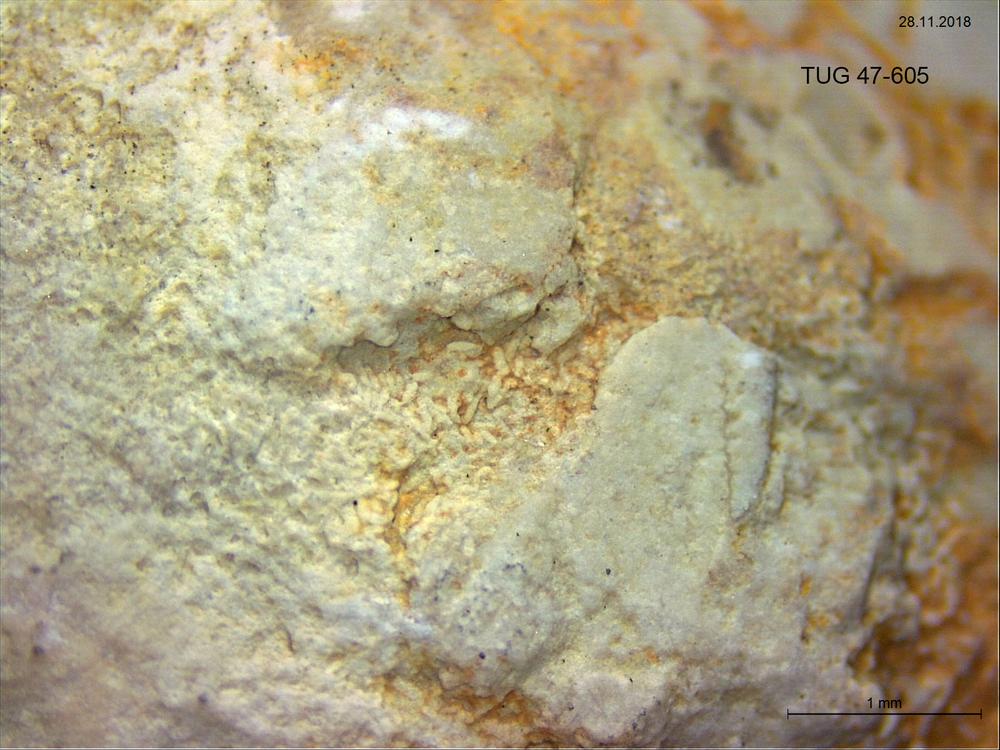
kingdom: Animalia
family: Coprulidae
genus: Coprulus
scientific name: Coprulus
